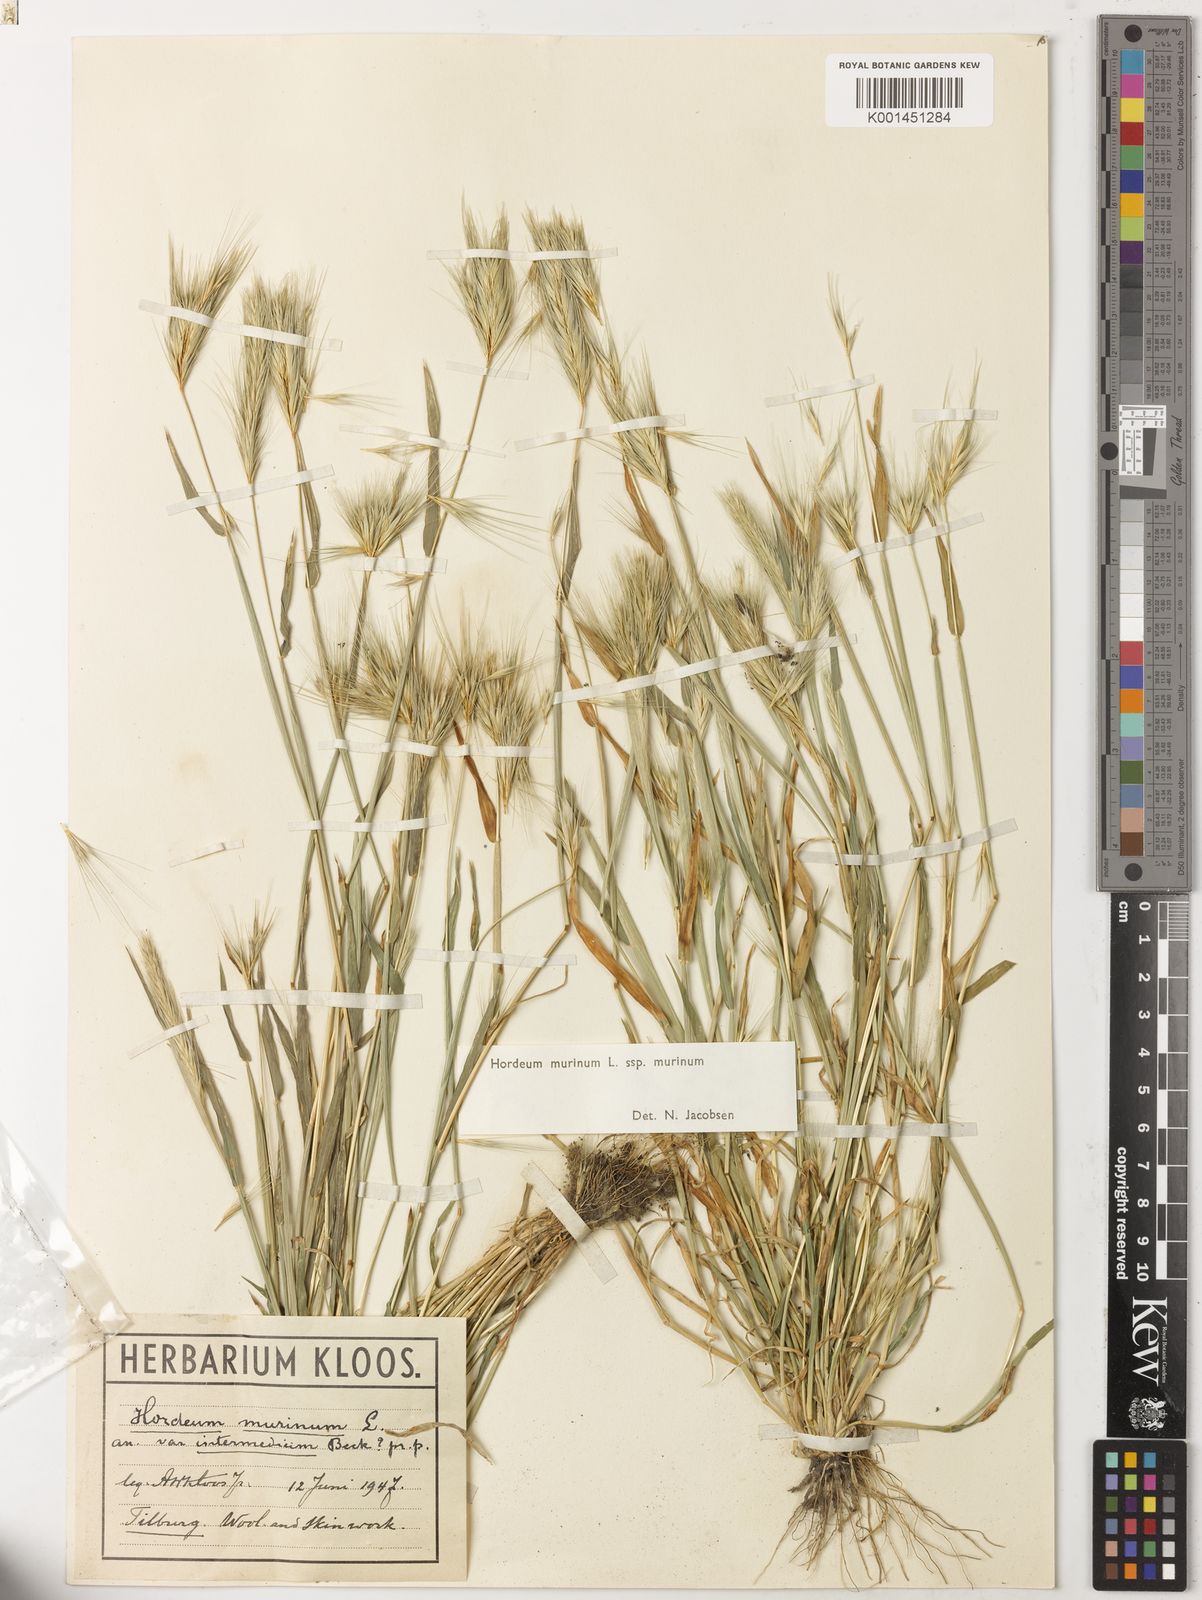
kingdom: Plantae
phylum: Tracheophyta
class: Liliopsida
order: Poales
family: Poaceae
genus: Hordeum
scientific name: Hordeum murinum
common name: Wall barley
